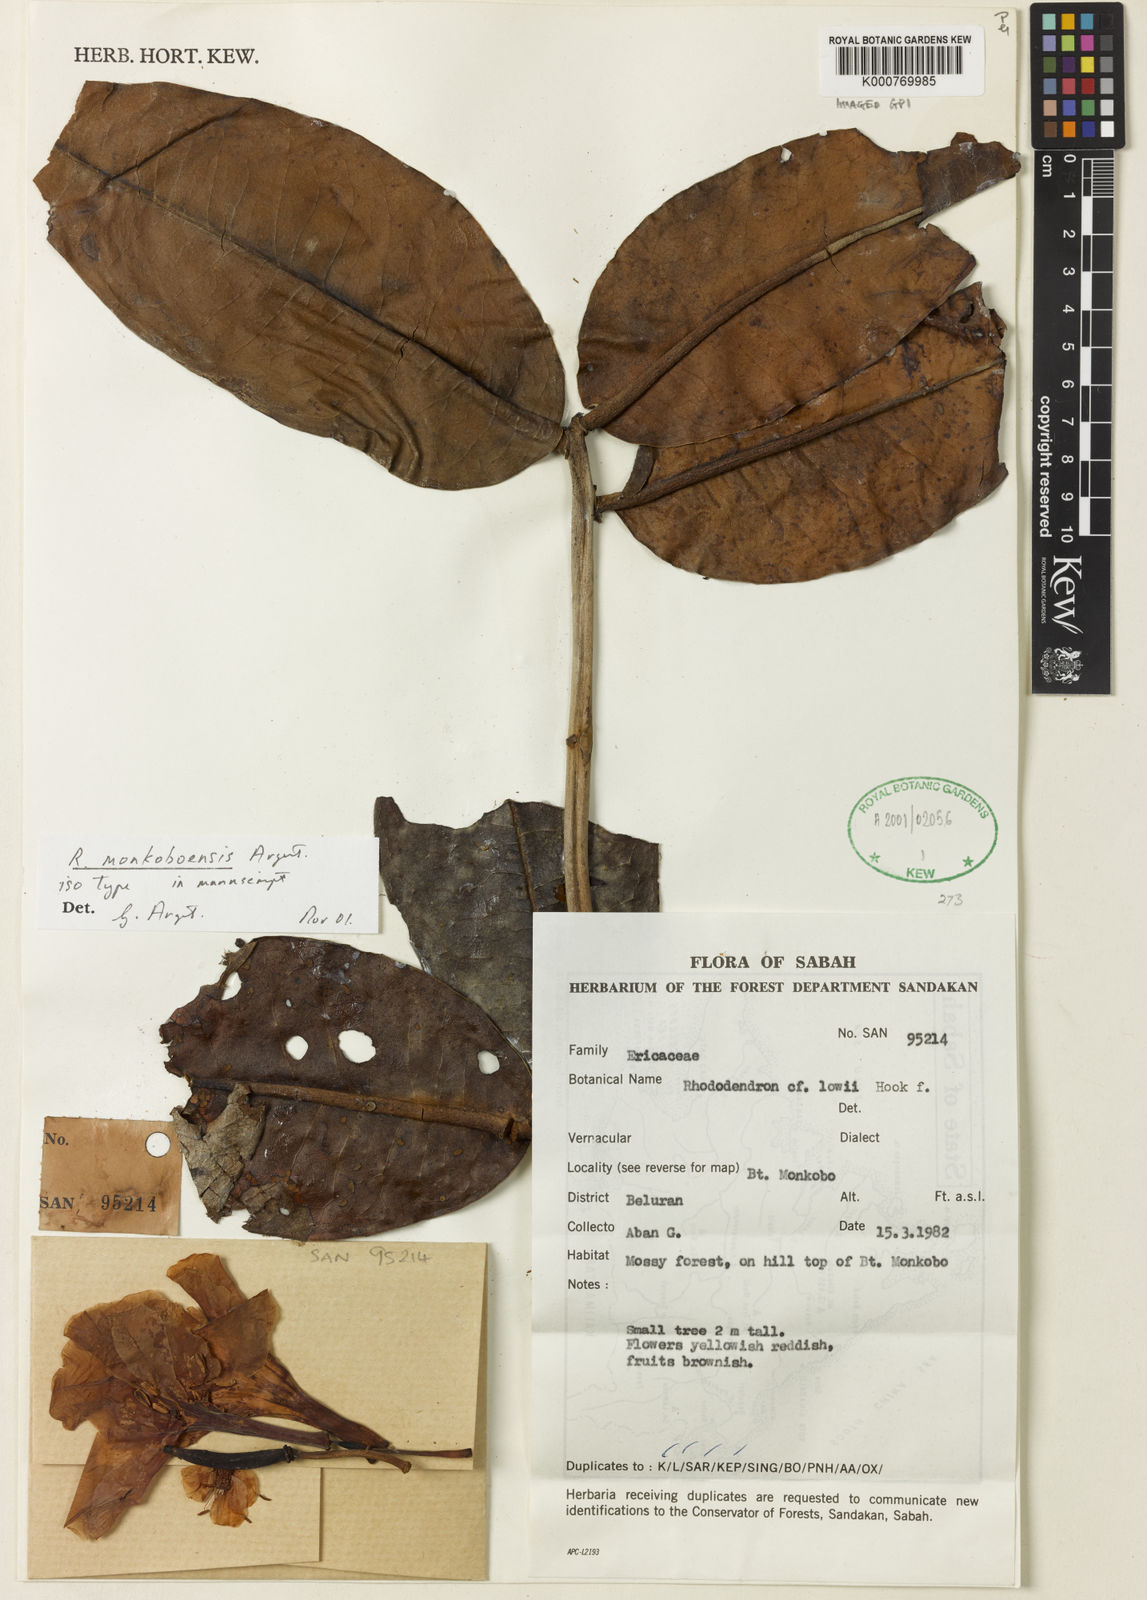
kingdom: Plantae
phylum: Tracheophyta
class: Magnoliopsida
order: Ericales
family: Ericaceae
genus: Rhododendron
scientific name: Rhododendron monkoboense
